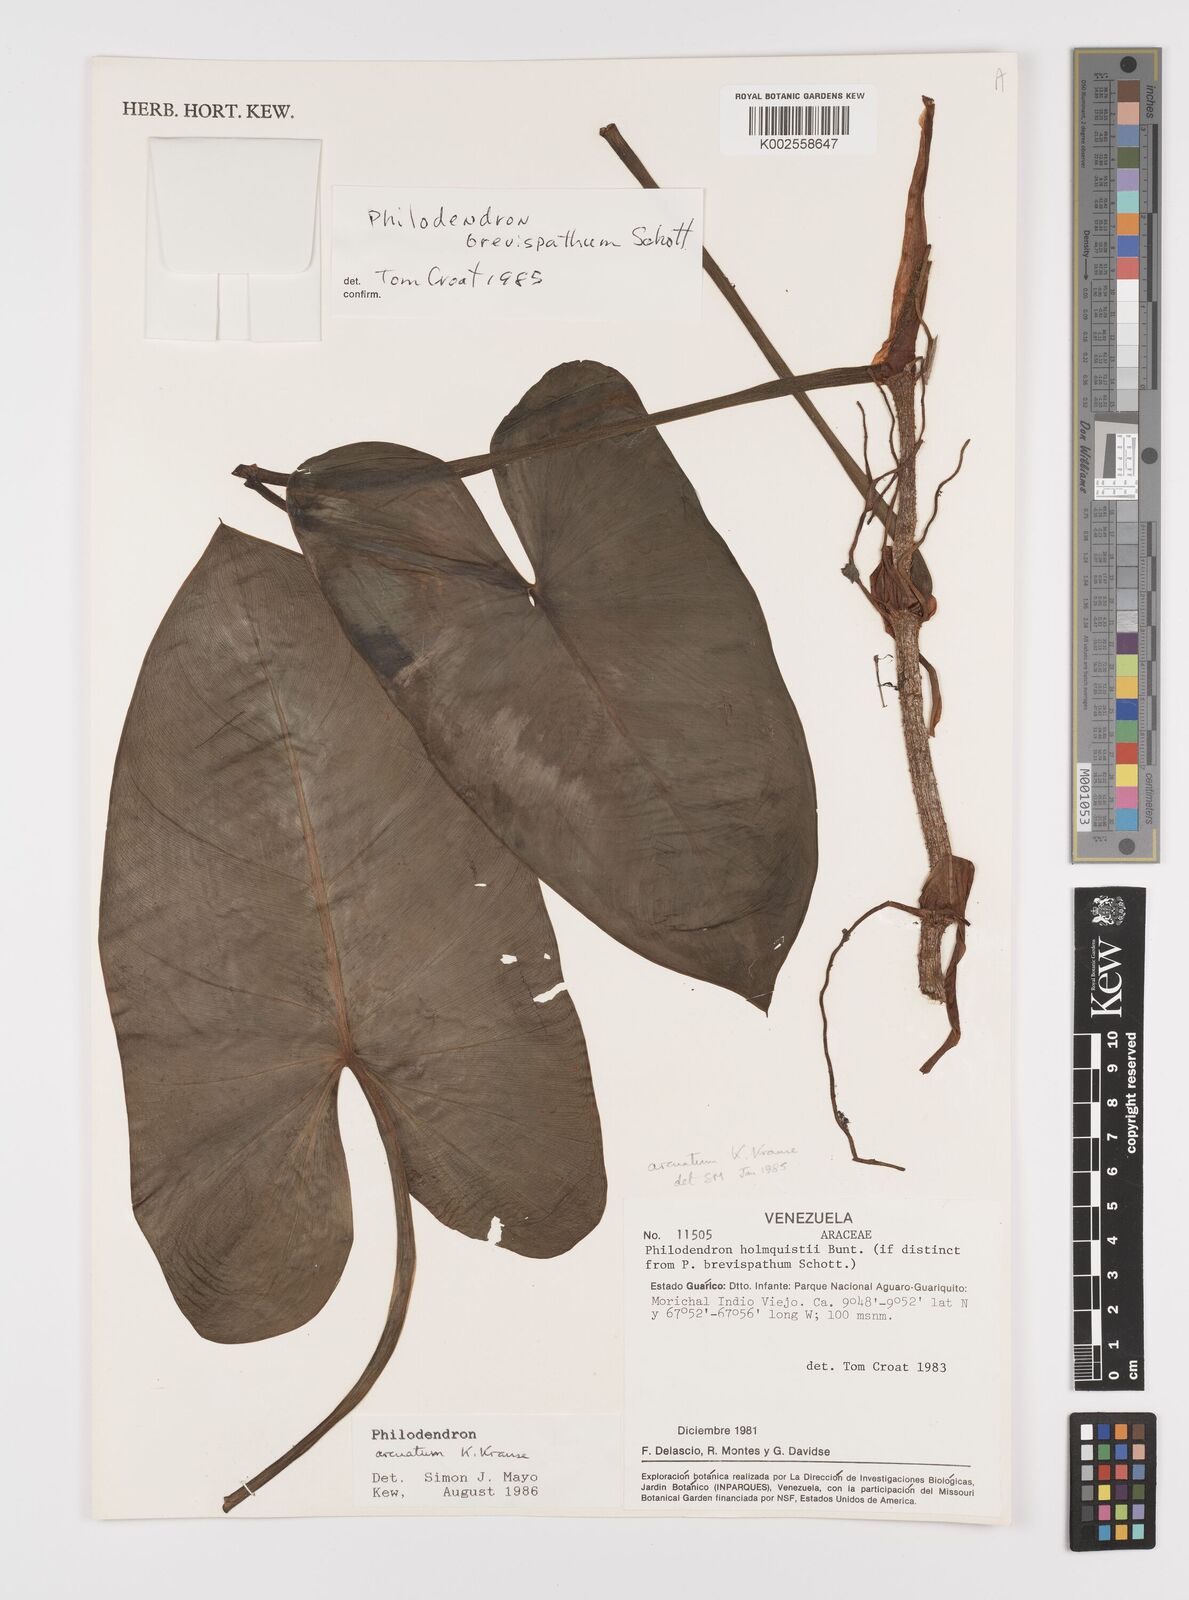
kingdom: Plantae
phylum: Tracheophyta
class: Liliopsida
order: Alismatales
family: Araceae
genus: Philodendron
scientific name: Philodendron brevispathum
